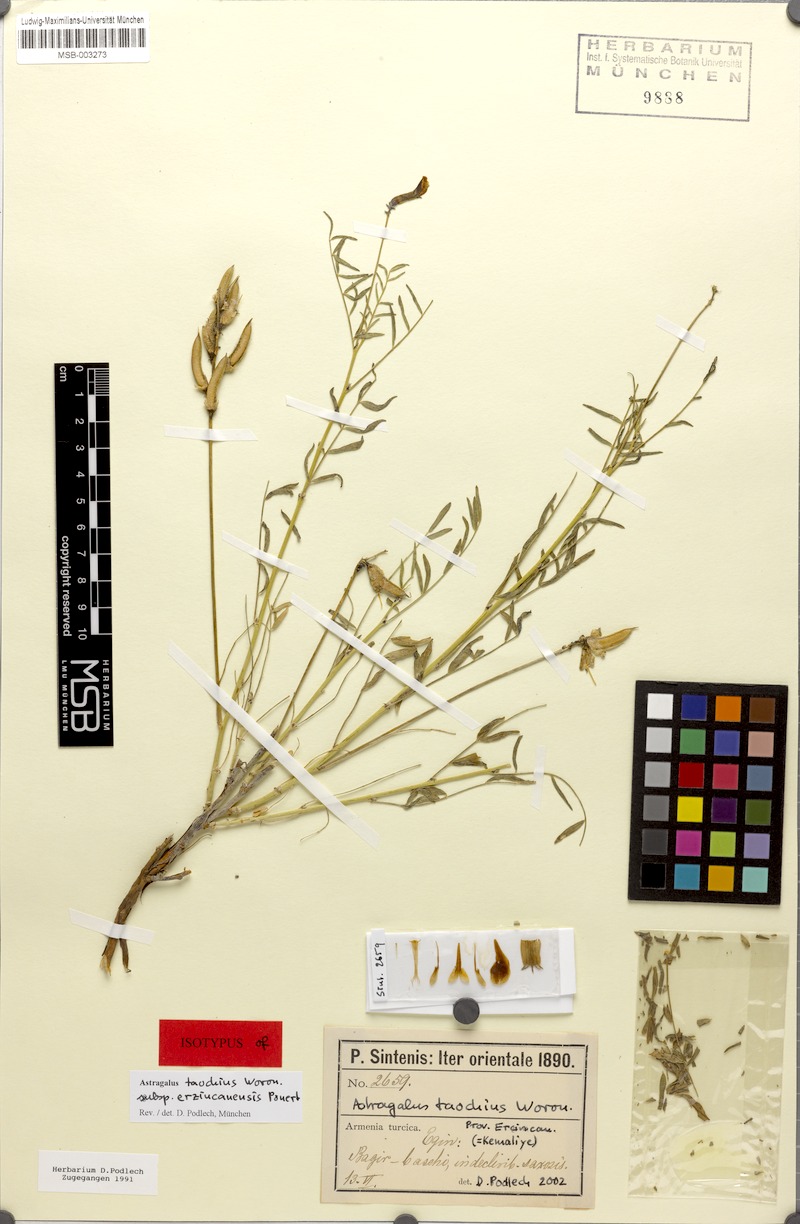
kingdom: Plantae
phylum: Tracheophyta
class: Magnoliopsida
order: Fabales
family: Fabaceae
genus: Astragalus
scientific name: Astragalus taochius
